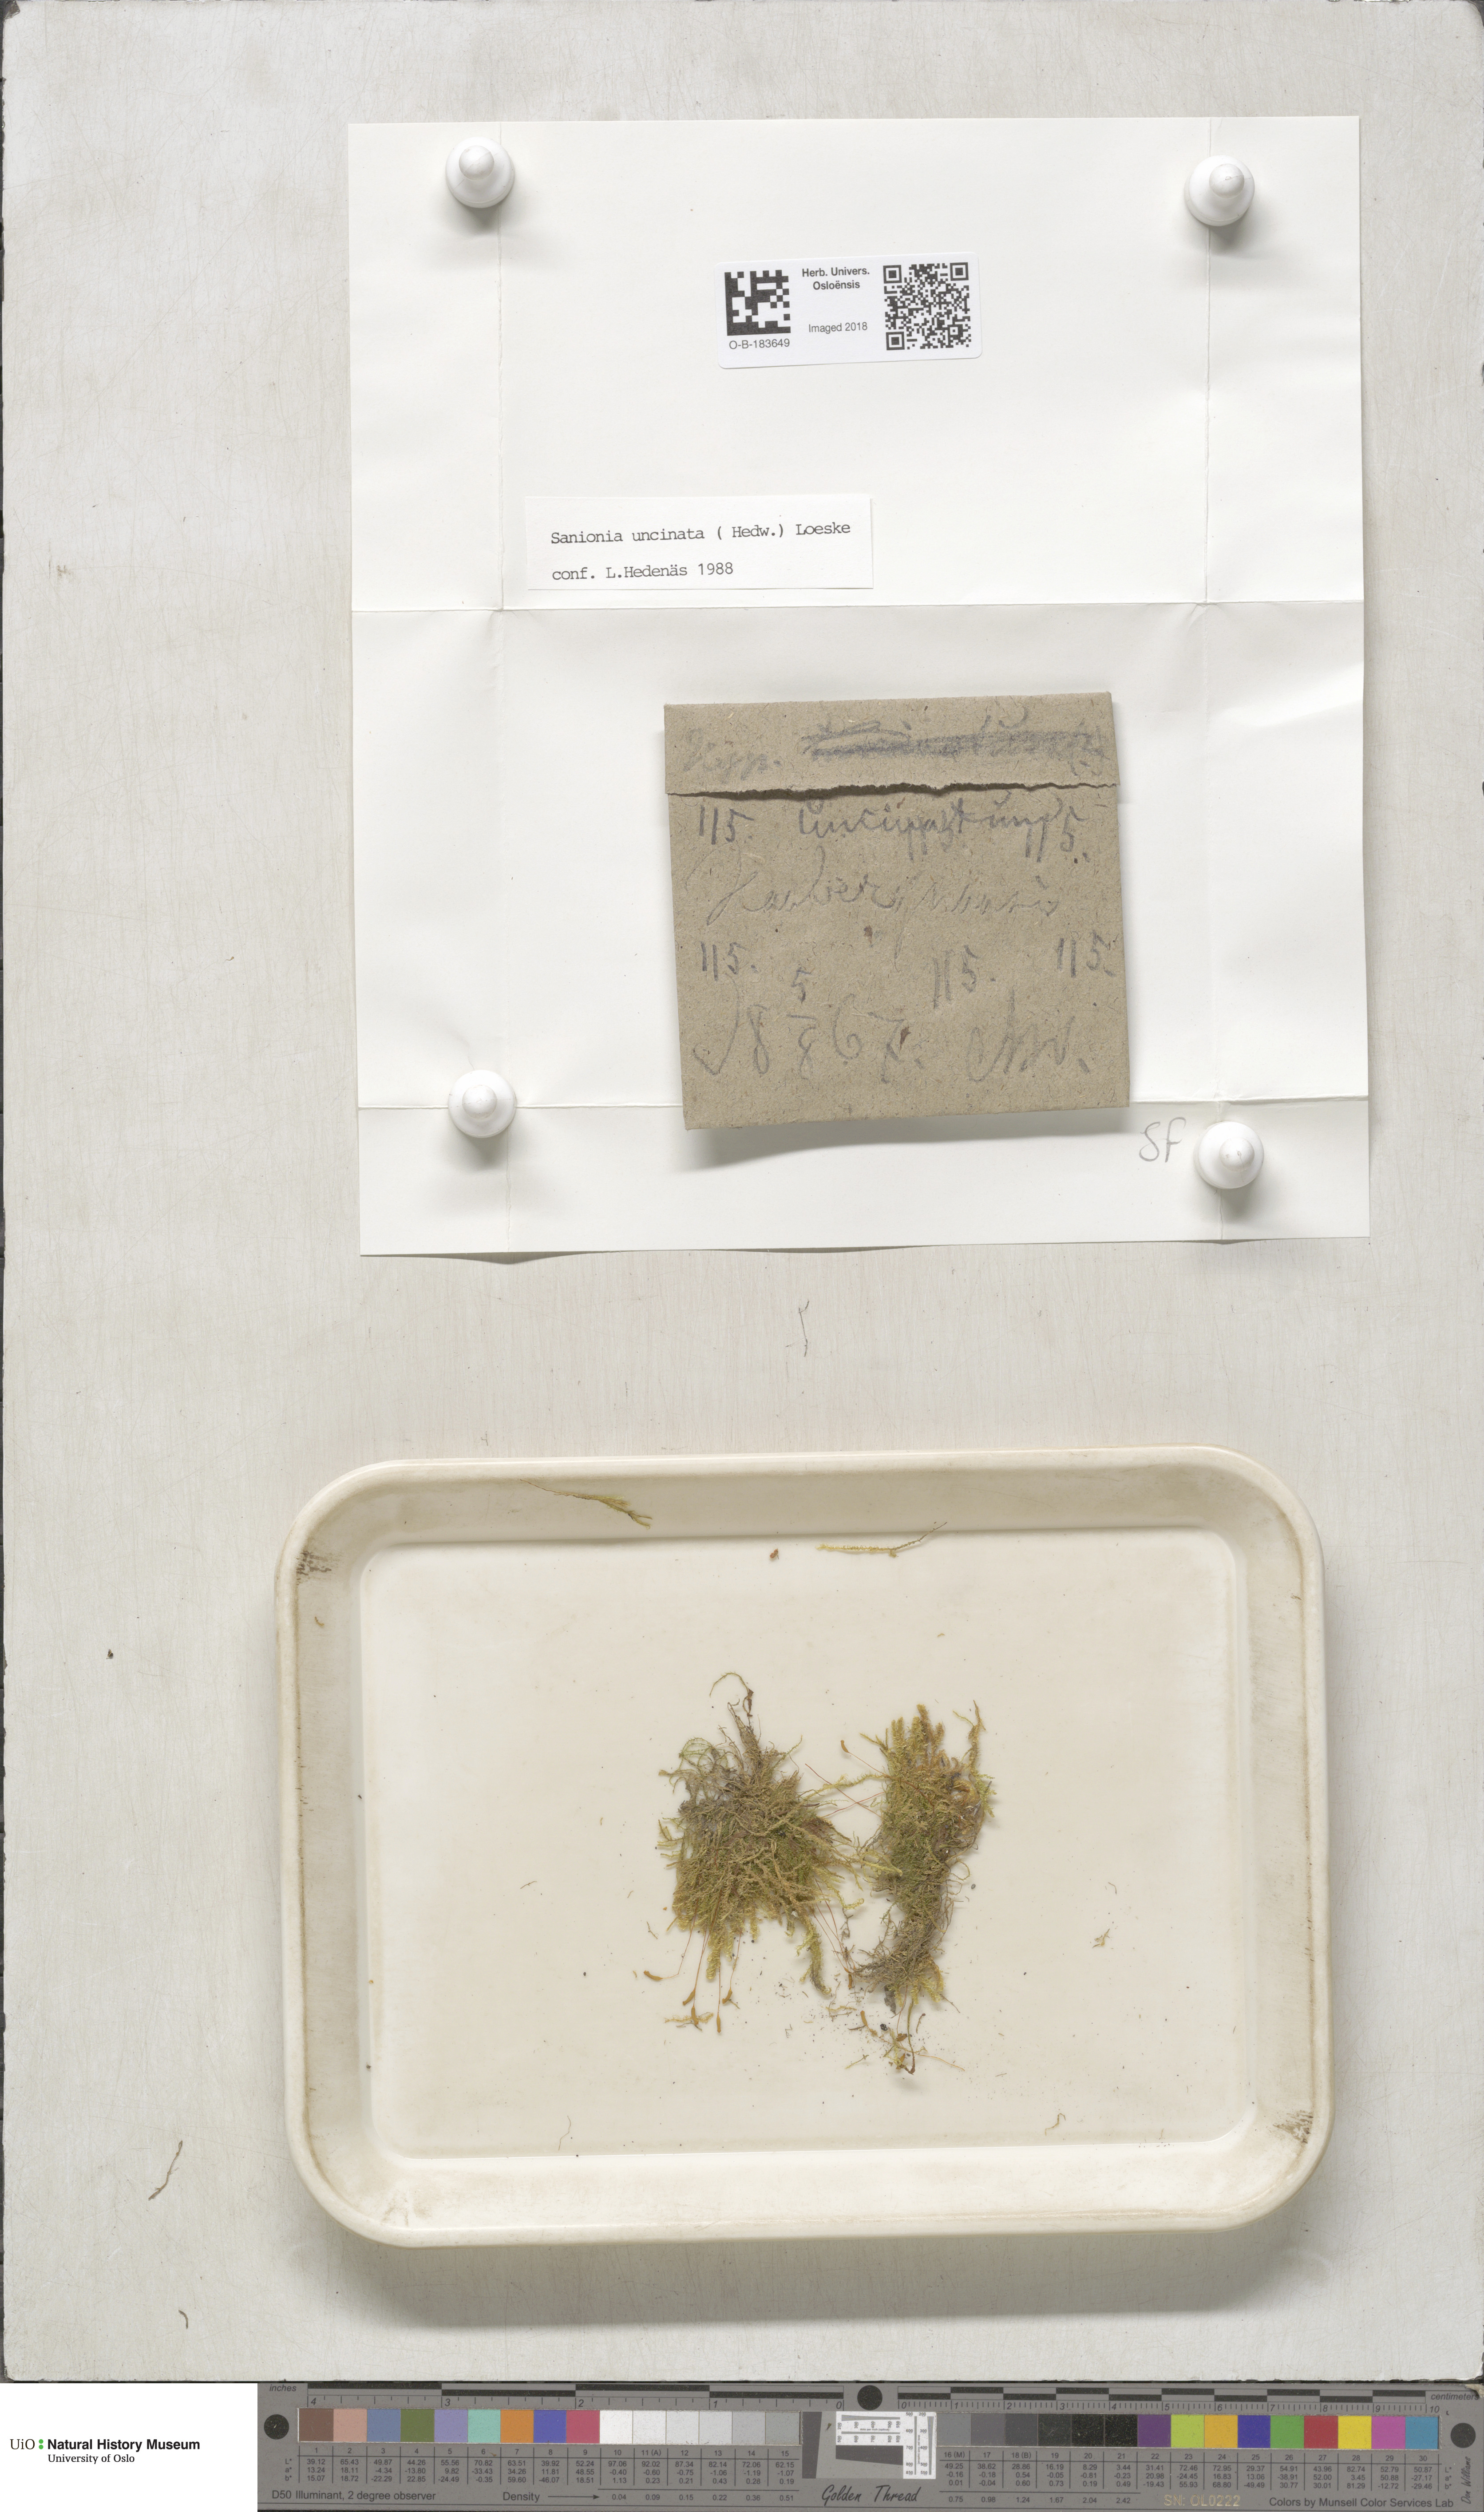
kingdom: Plantae
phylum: Bryophyta
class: Bryopsida
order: Hypnales
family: Scorpidiaceae
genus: Sanionia
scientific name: Sanionia uncinata
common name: Sickle moss
